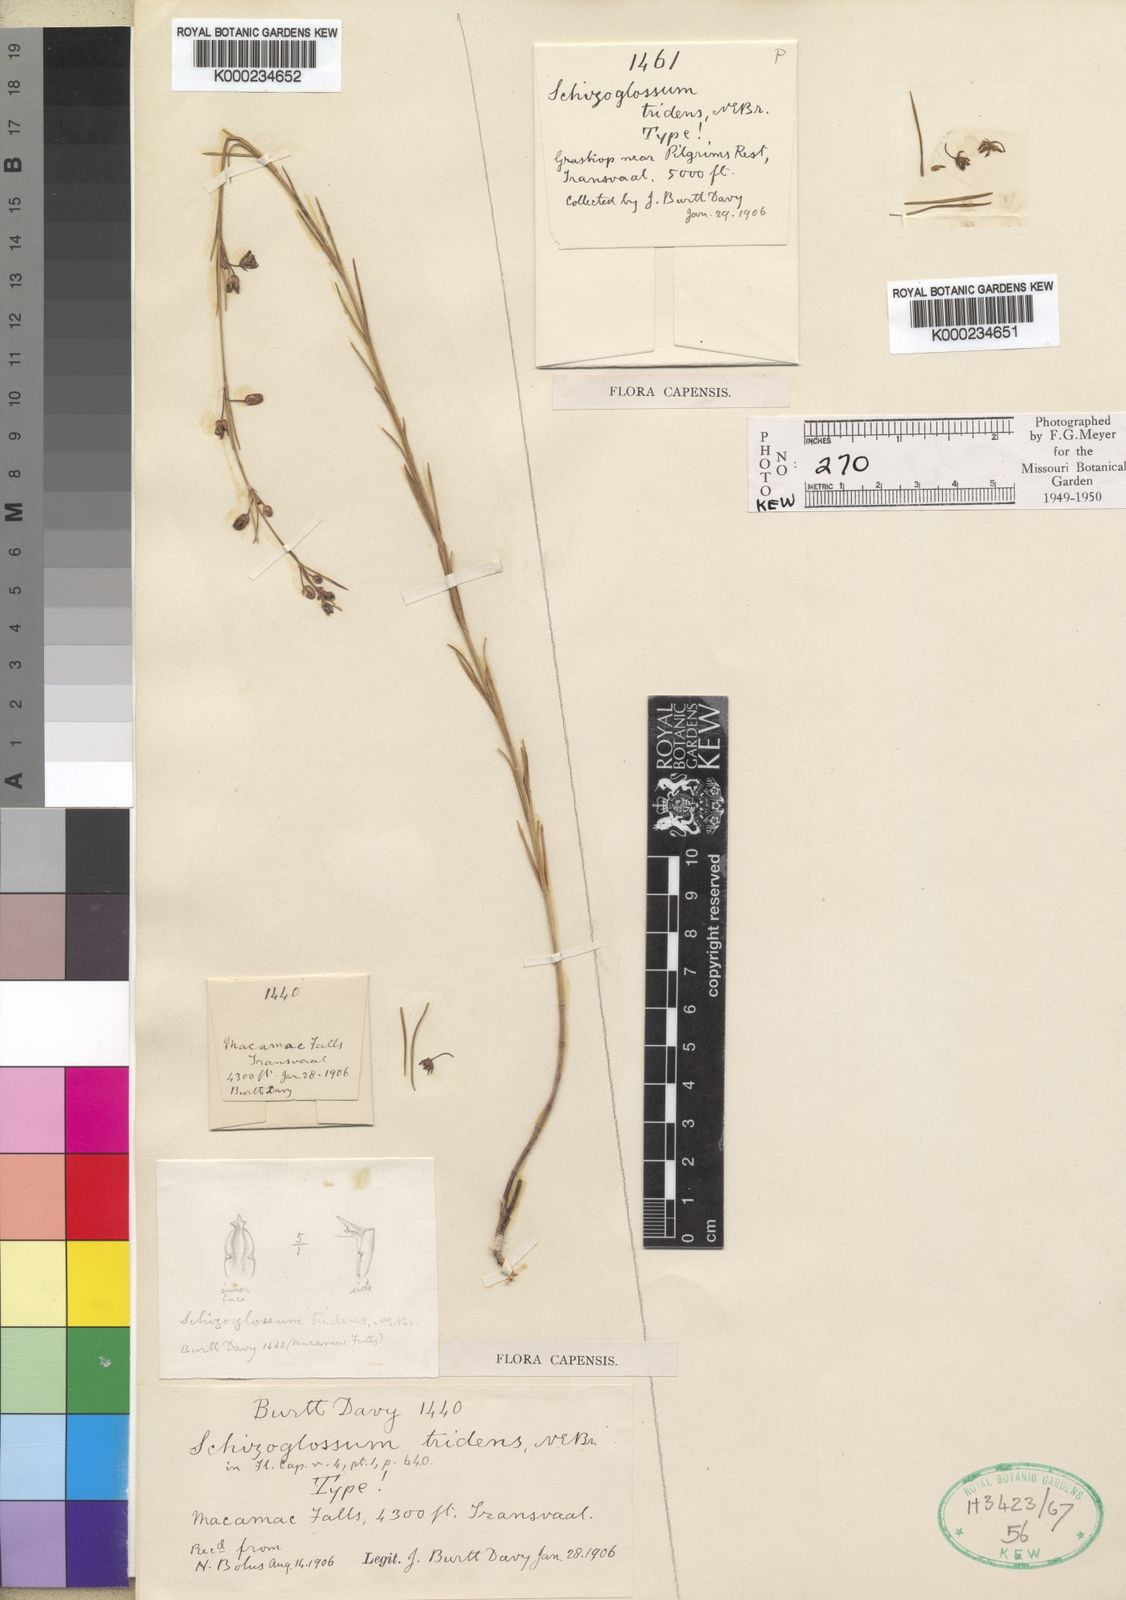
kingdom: Plantae
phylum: Tracheophyta
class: Magnoliopsida
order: Gentianales
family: Apocynaceae
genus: Aspidoglossum
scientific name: Aspidoglossum glabrescens
